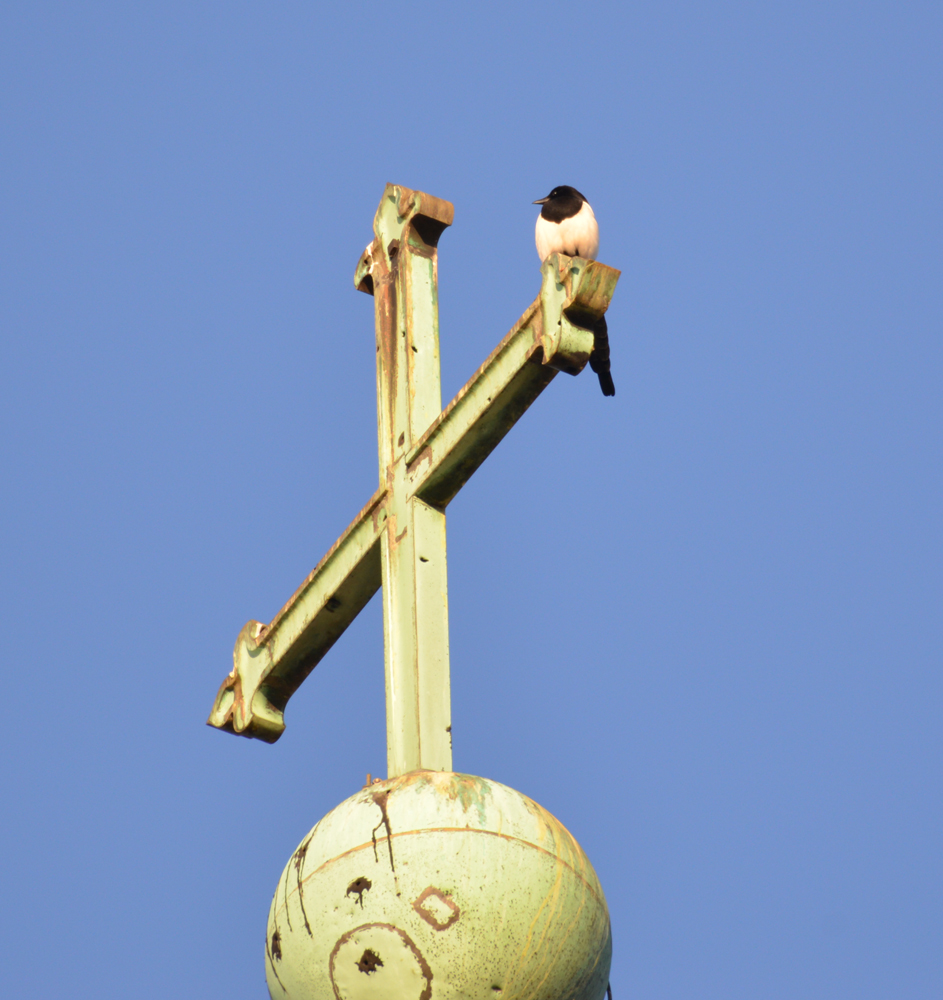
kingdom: Animalia
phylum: Chordata
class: Aves
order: Passeriformes
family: Corvidae
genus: Pica
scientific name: Pica pica
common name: Eurasian magpie
